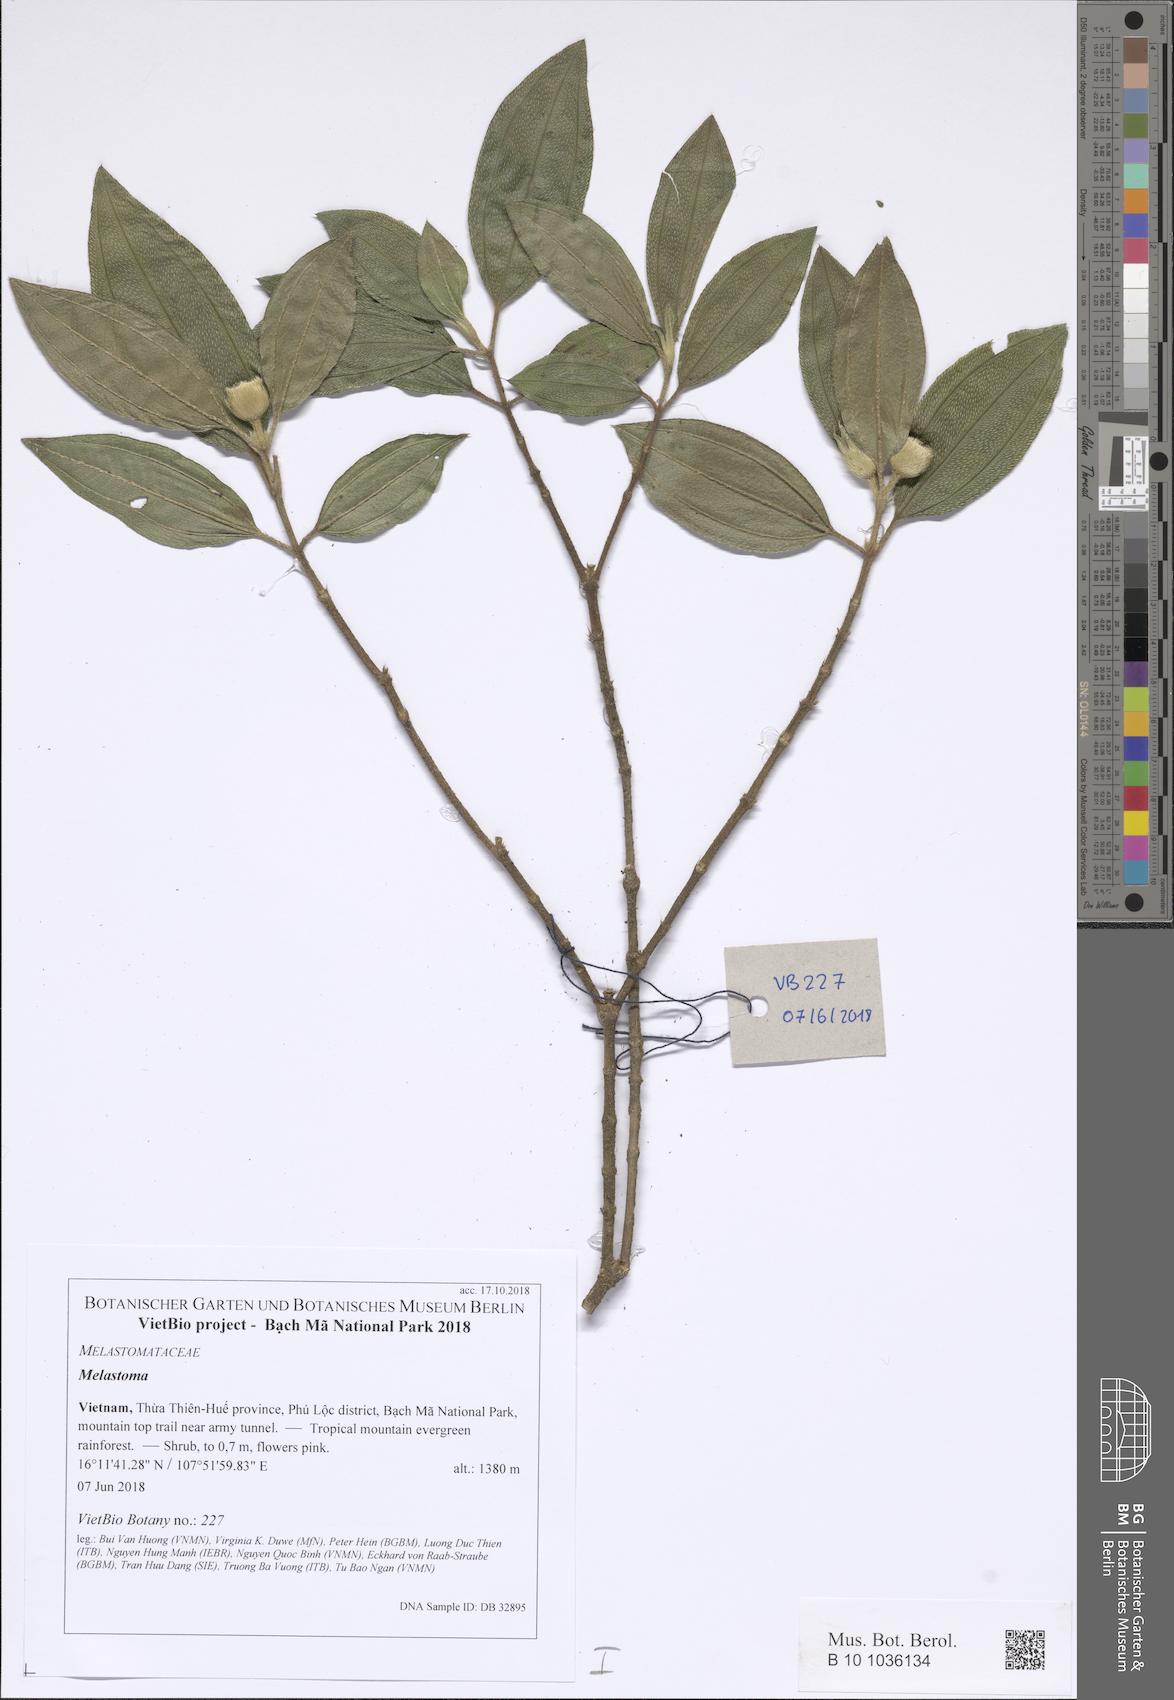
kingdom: Plantae
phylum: Tracheophyta
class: Magnoliopsida
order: Myrtales
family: Melastomataceae
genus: Melastoma
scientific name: Melastoma
